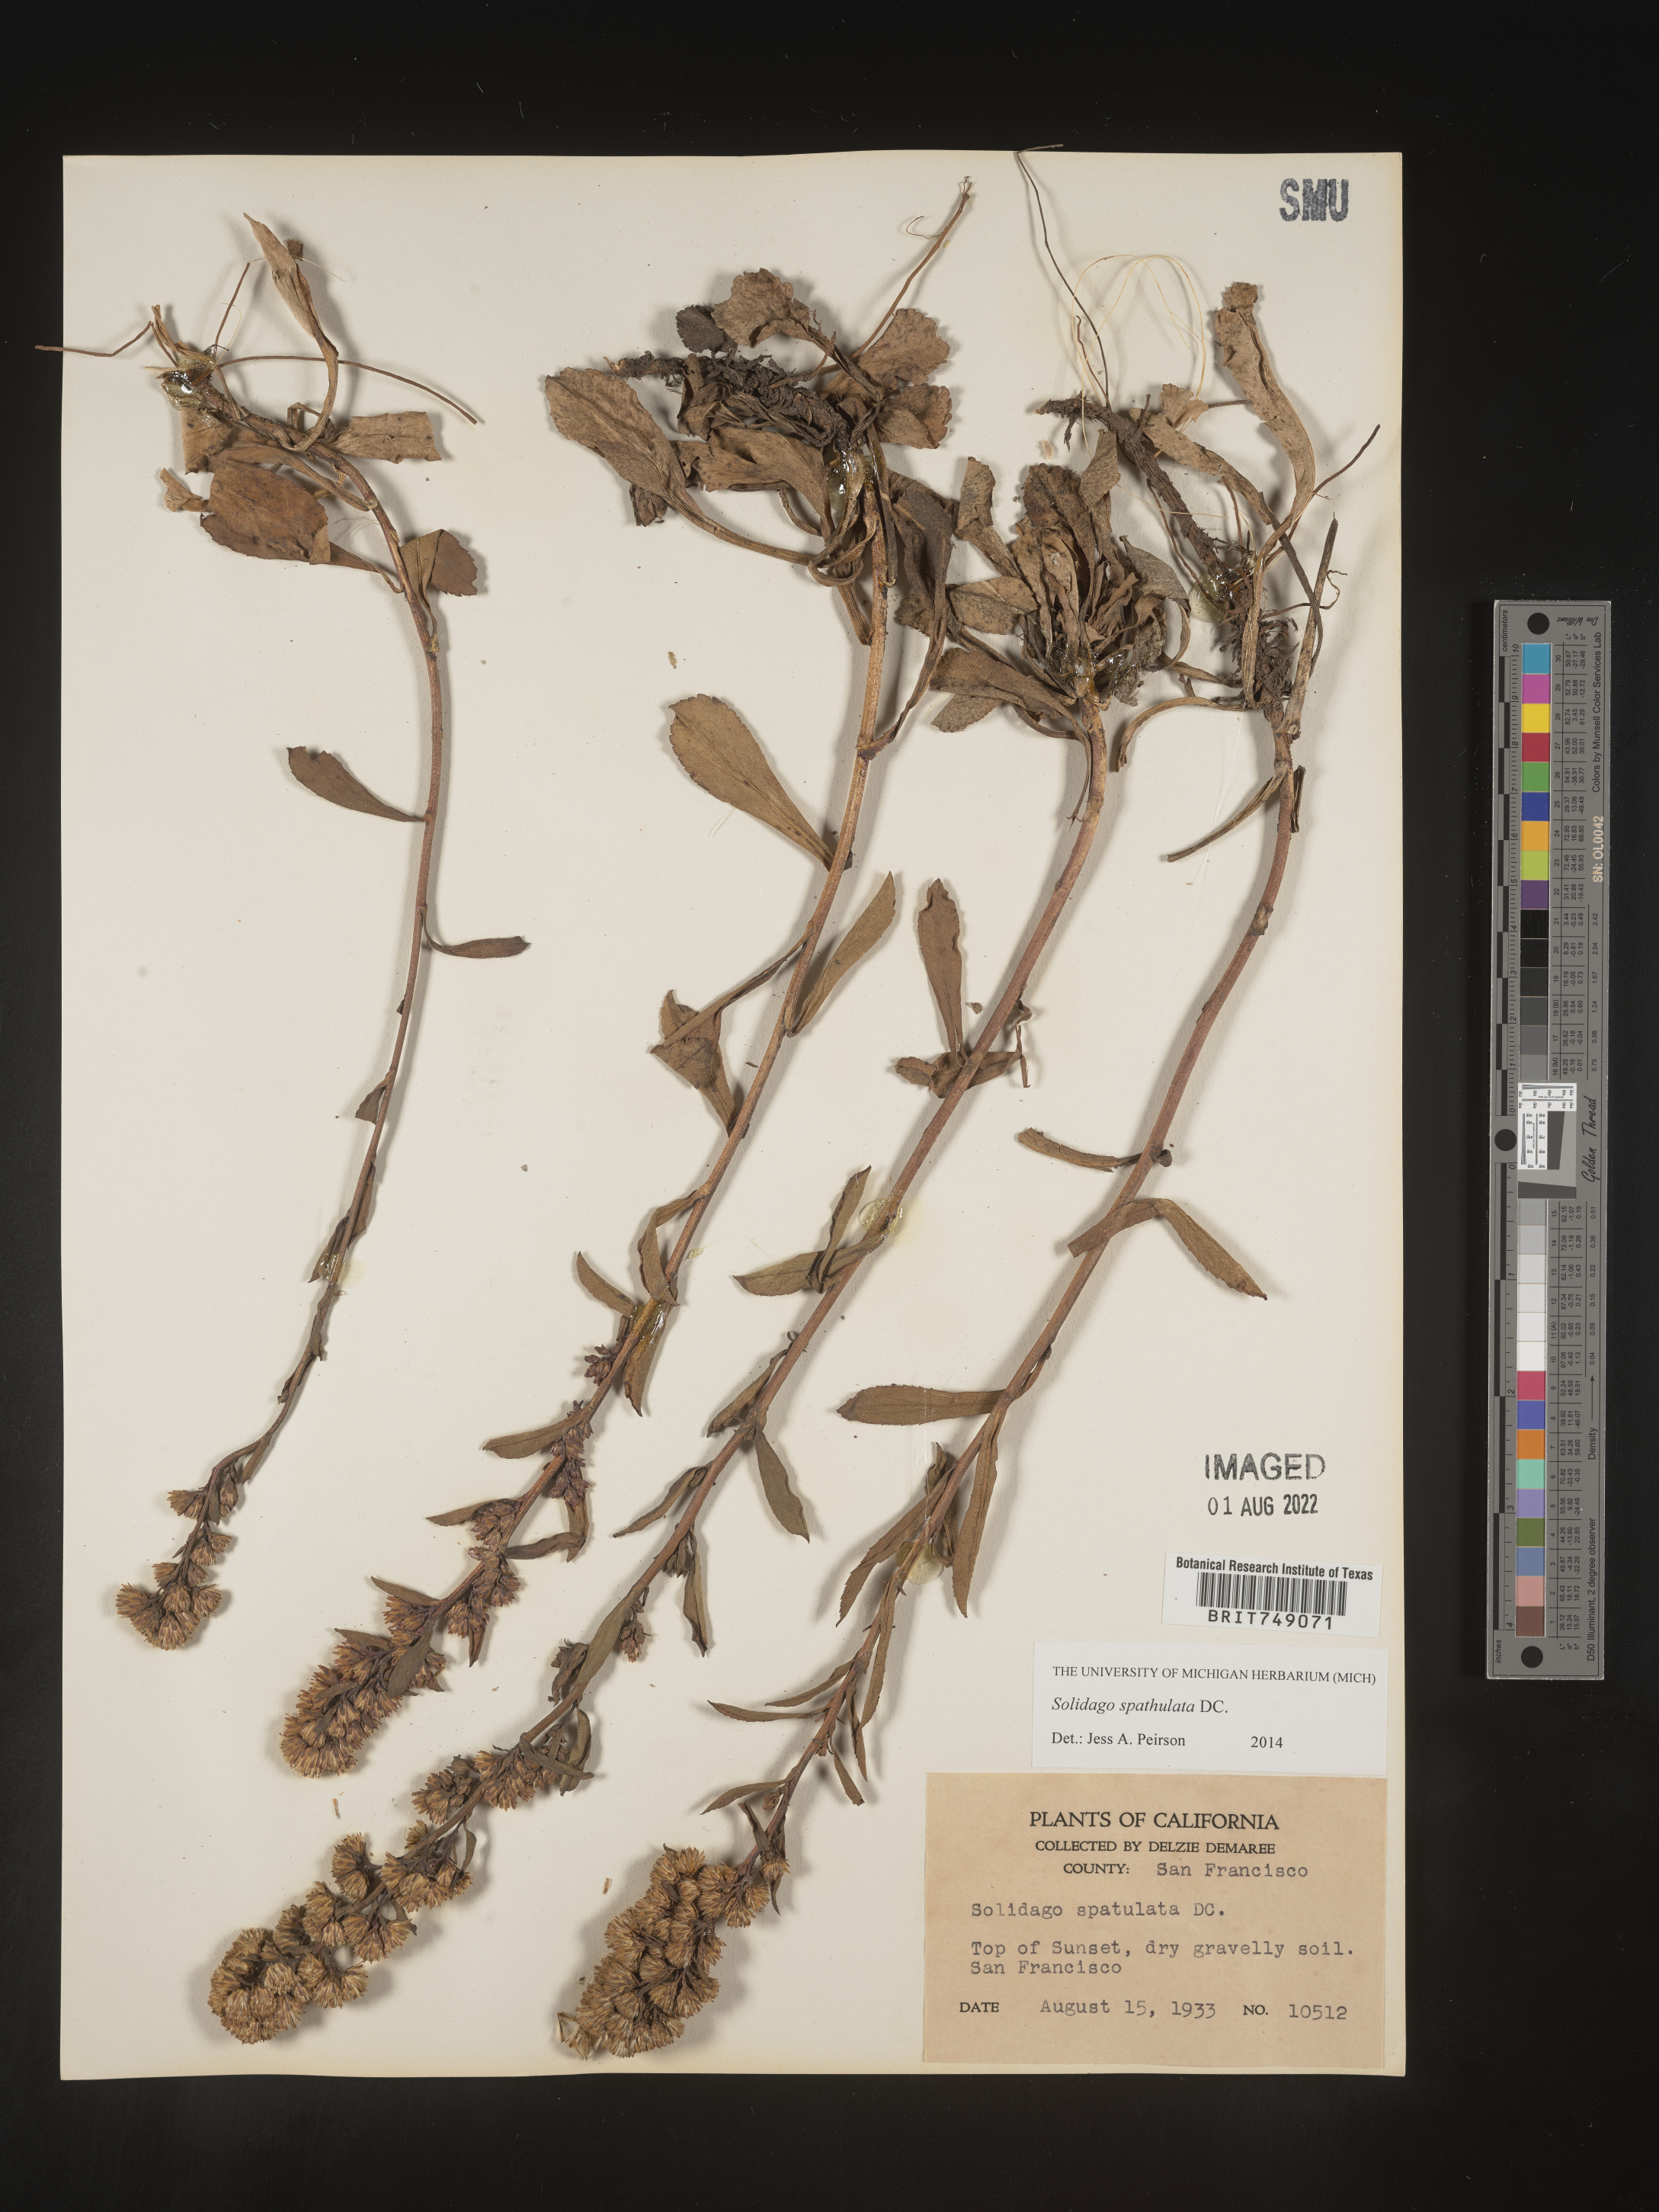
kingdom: Plantae
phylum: Tracheophyta
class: Magnoliopsida
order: Asterales
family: Asteraceae
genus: Solidago
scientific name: Solidago spathulata
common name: Coast goldenrod
